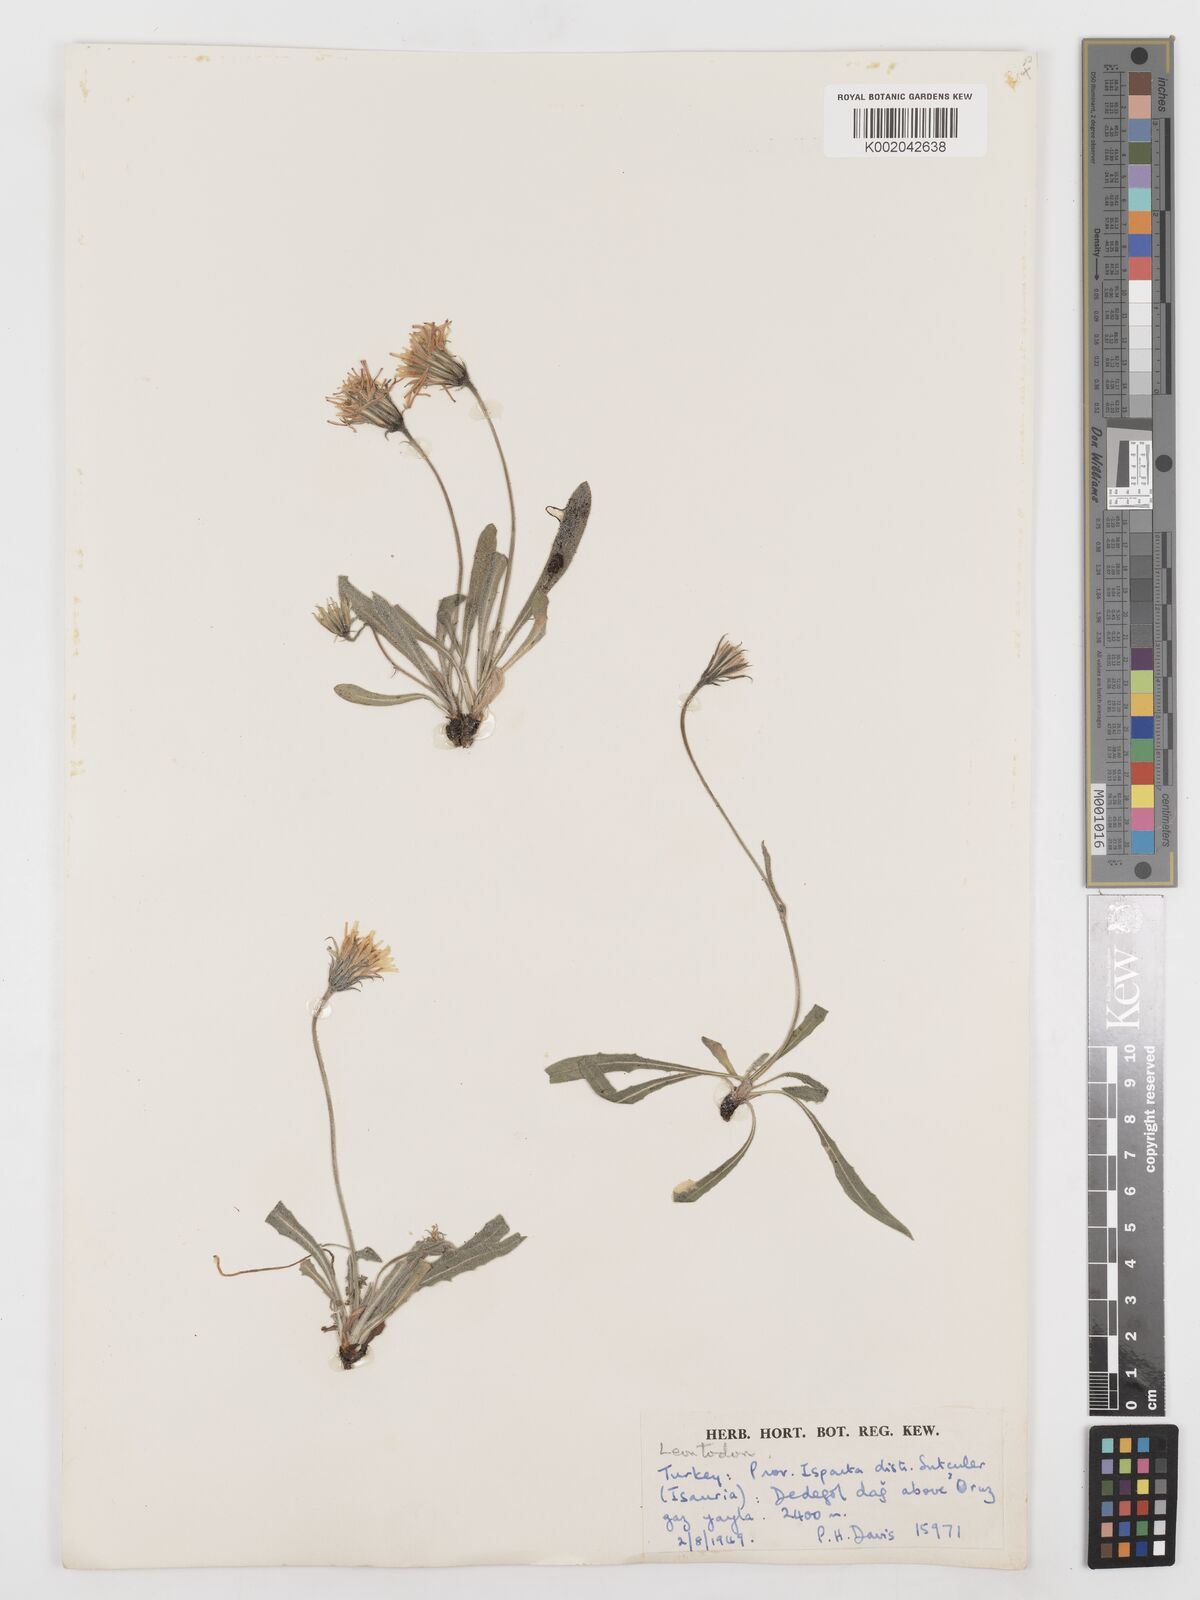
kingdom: Plantae
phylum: Tracheophyta
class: Magnoliopsida
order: Asterales
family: Asteraceae
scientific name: Asteraceae
